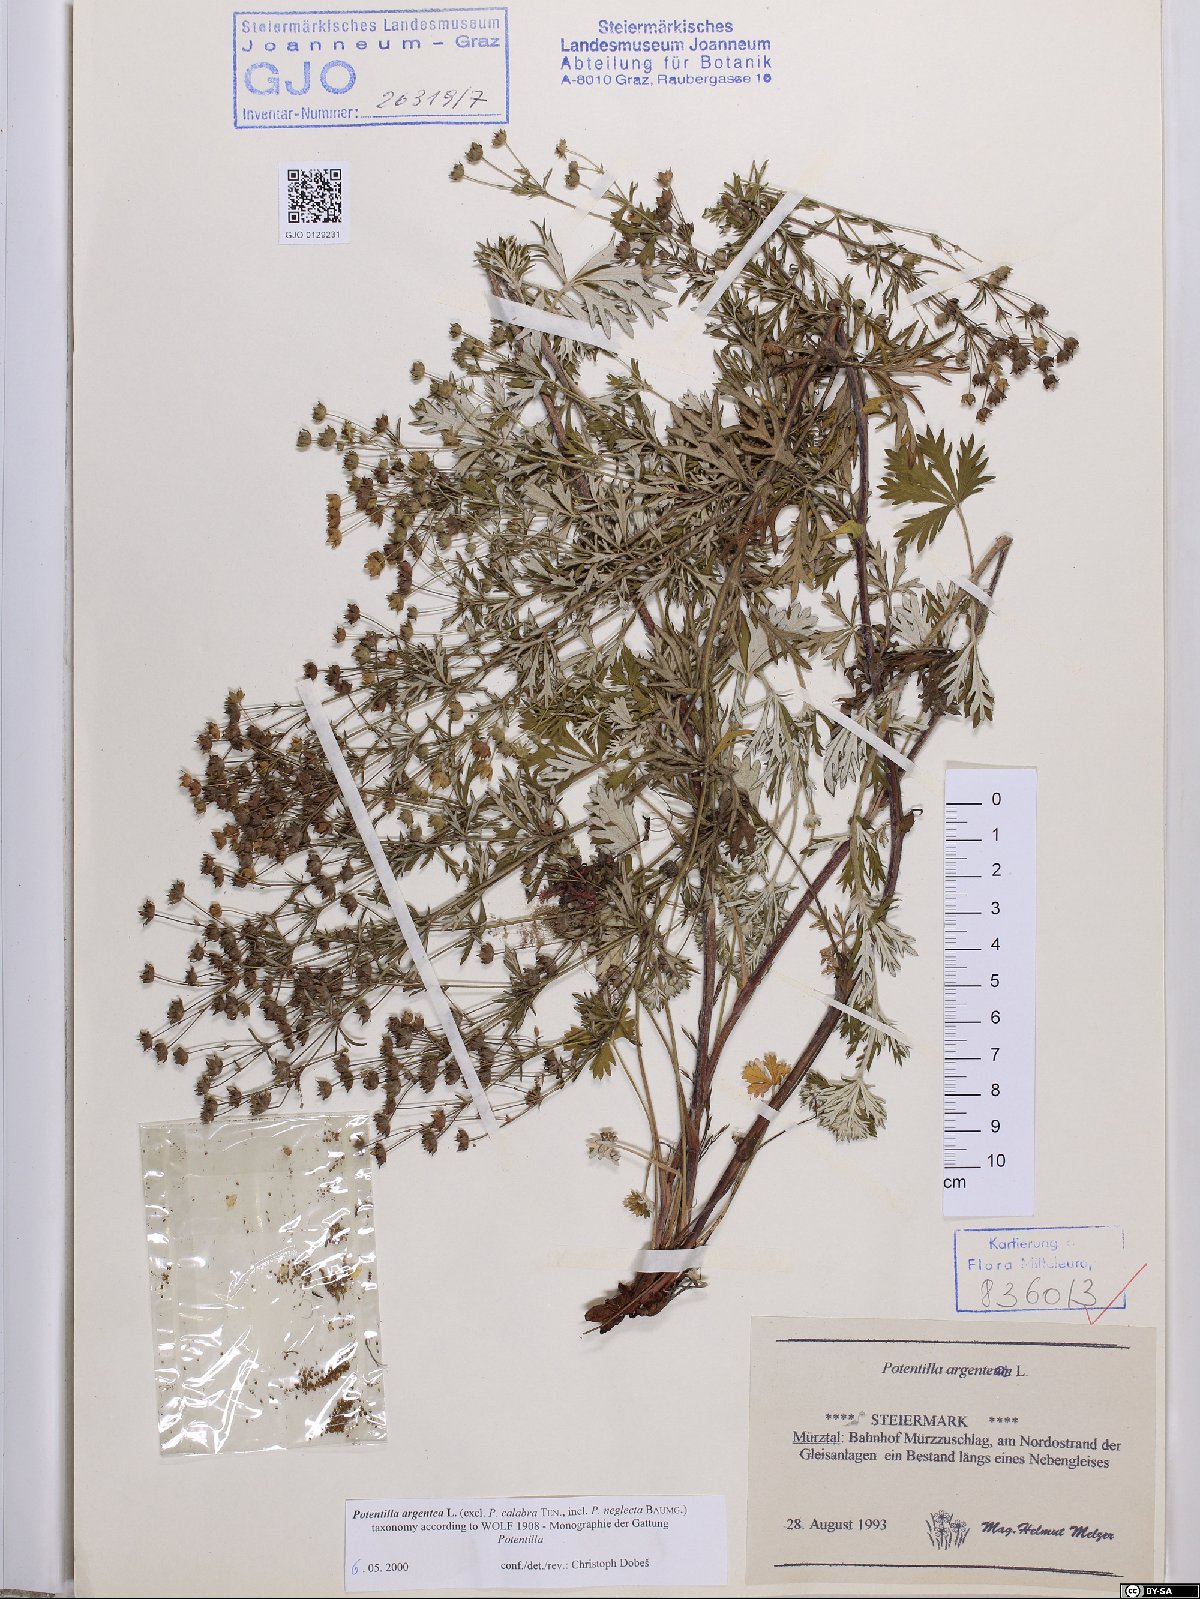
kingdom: Plantae
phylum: Tracheophyta
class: Magnoliopsida
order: Rosales
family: Rosaceae
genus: Potentilla
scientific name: Potentilla argentea
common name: Hoary cinquefoil
